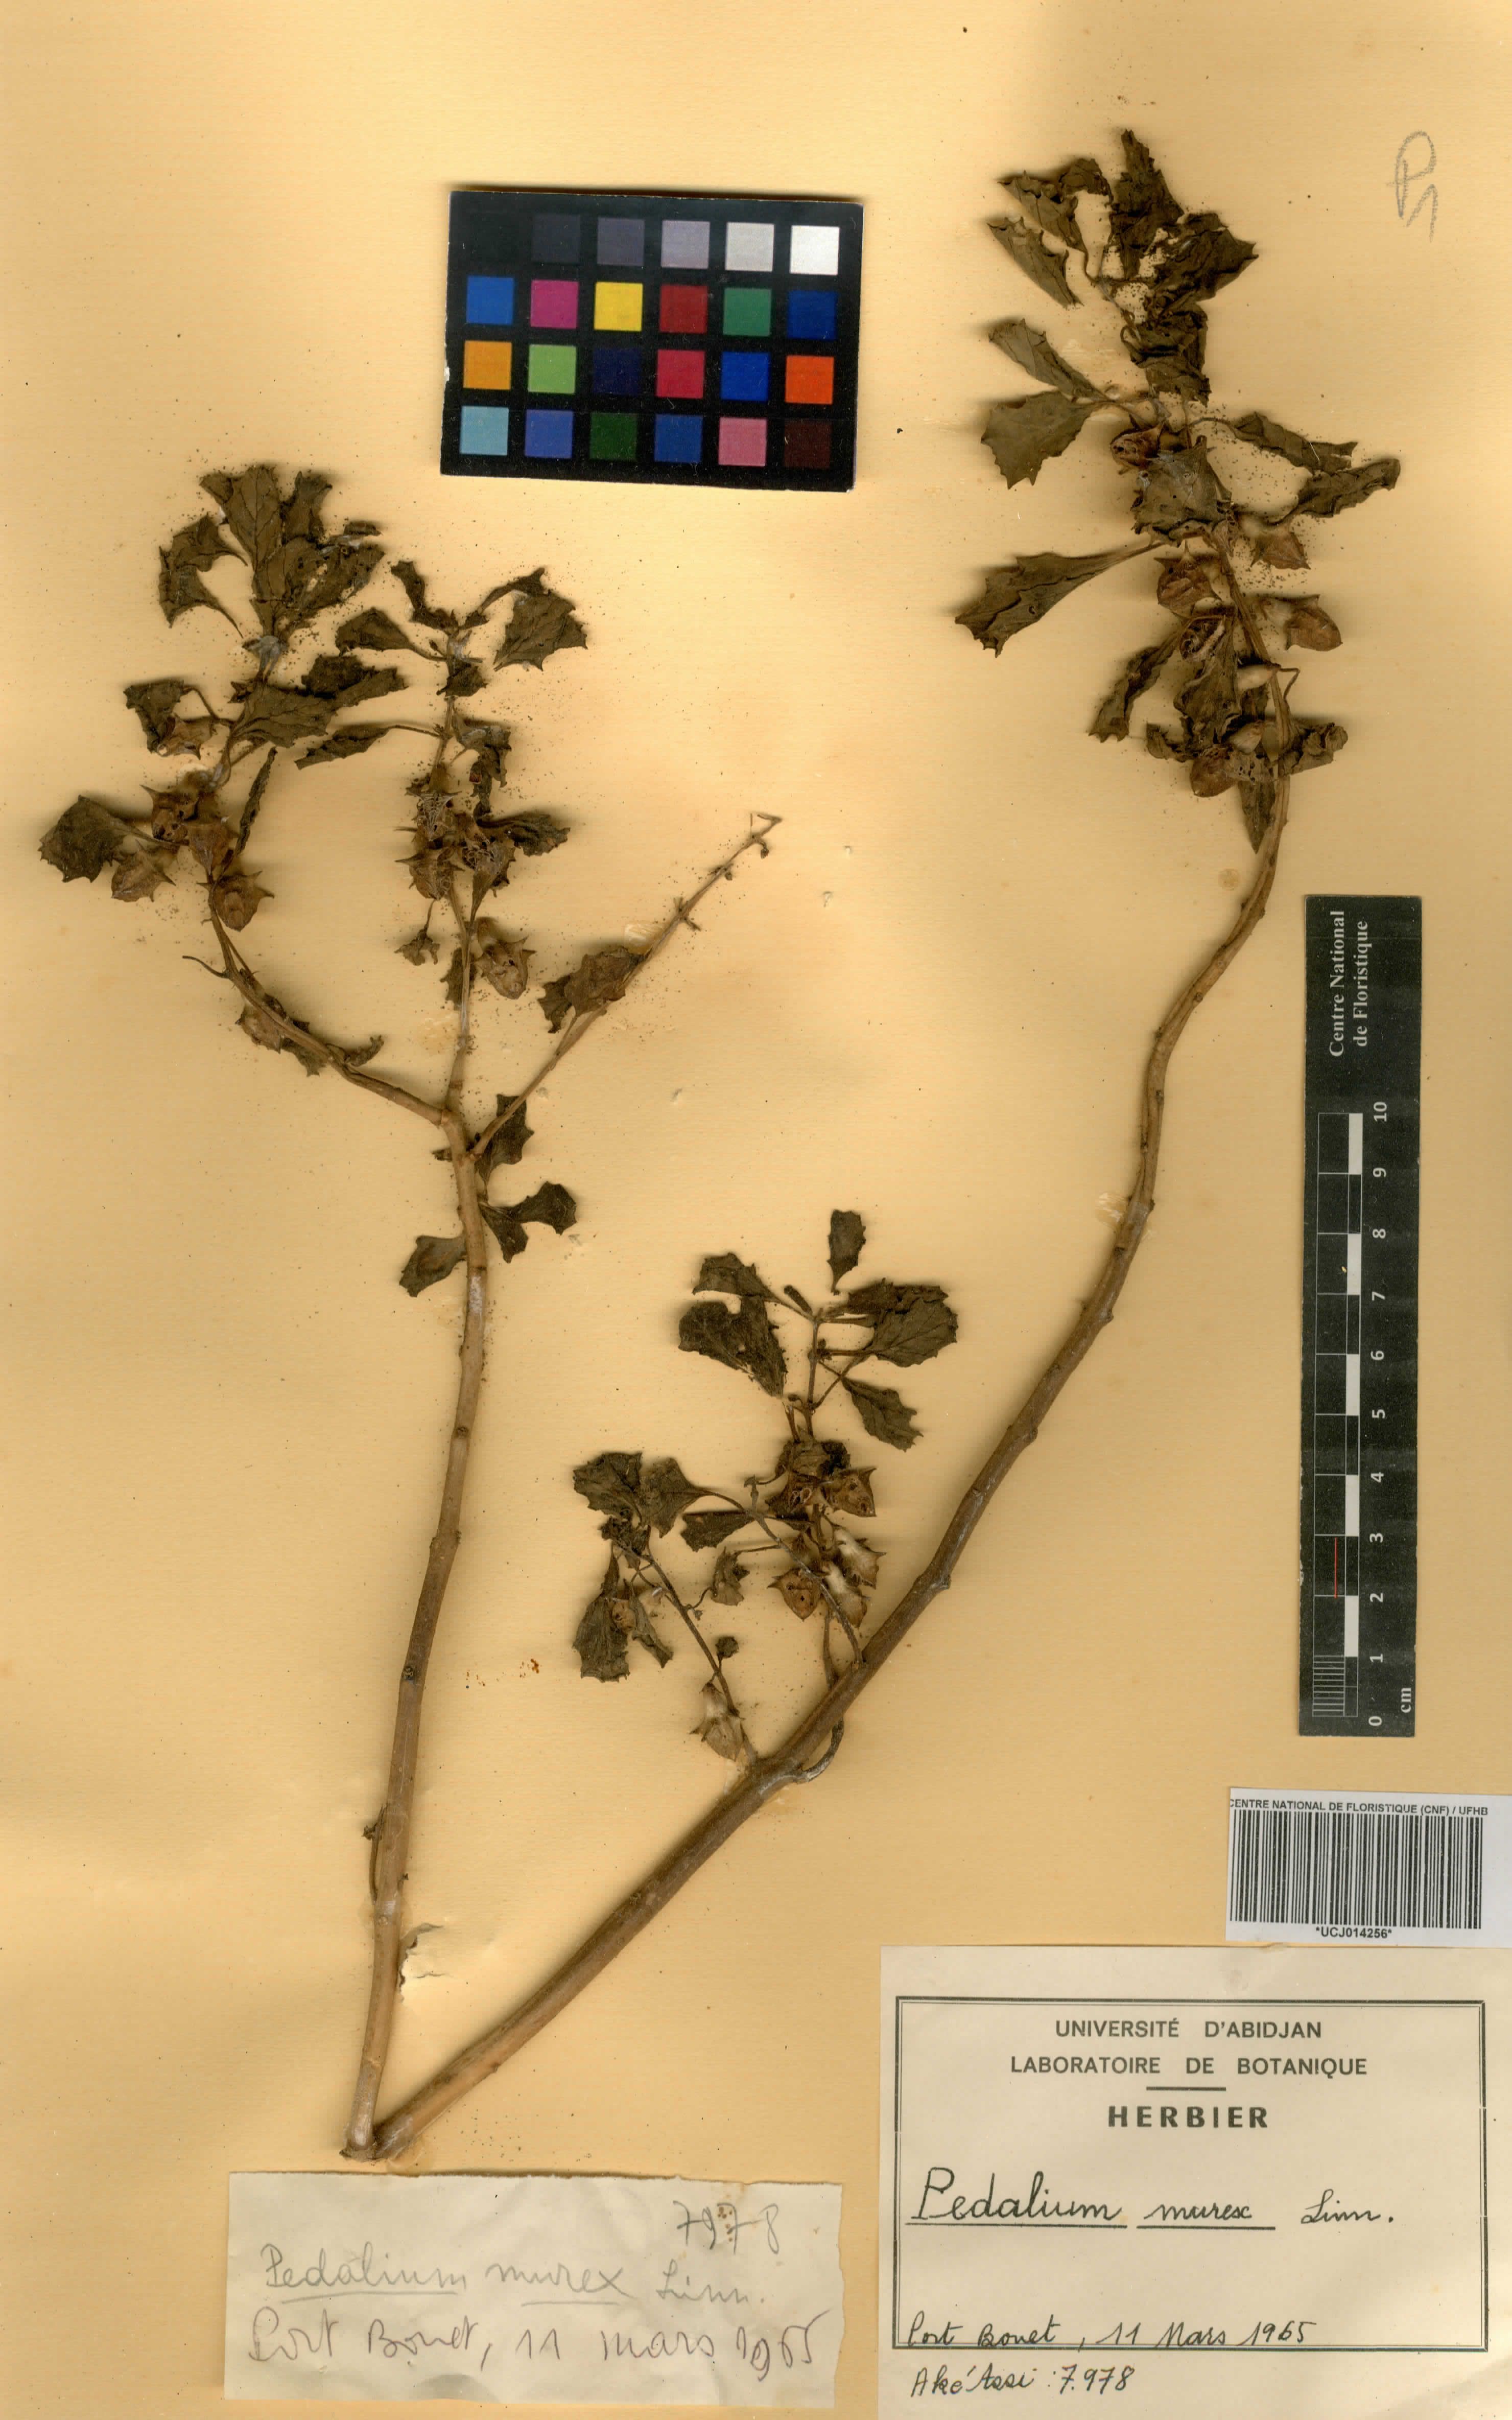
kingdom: Plantae
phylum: Tracheophyta
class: Magnoliopsida
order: Lamiales
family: Pedaliaceae
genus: Pedalium
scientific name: Pedalium murex
